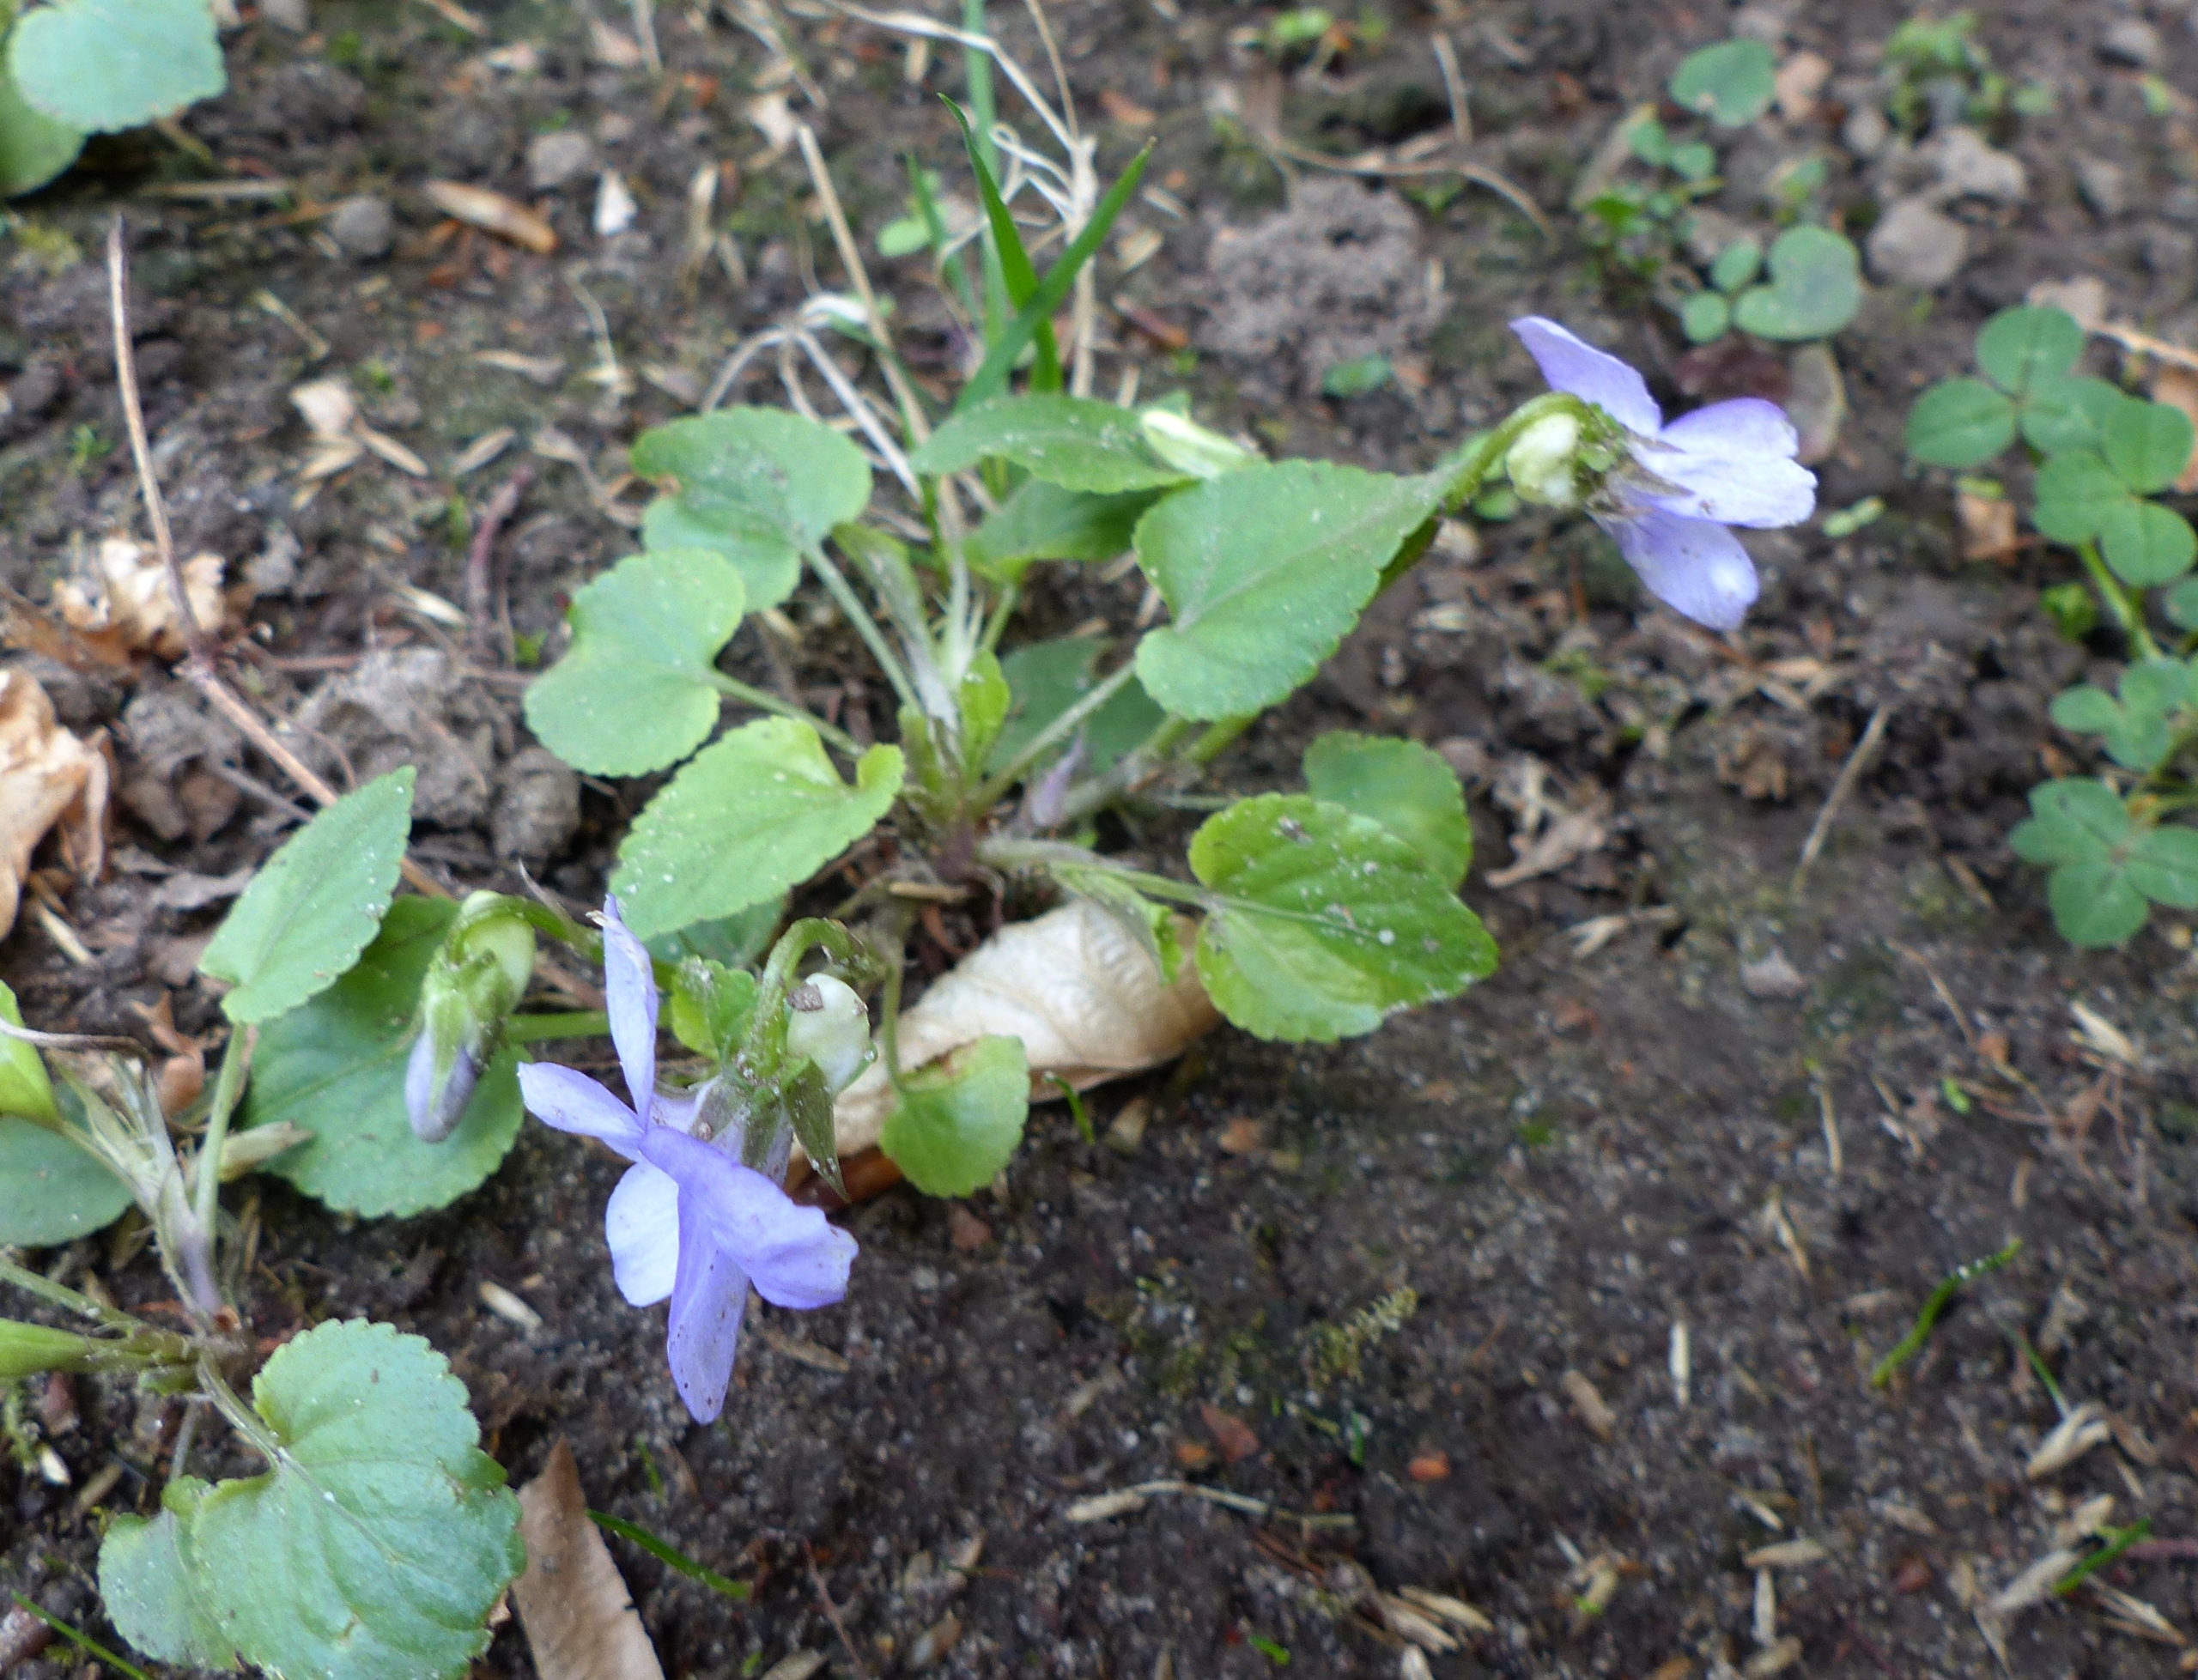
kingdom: Plantae
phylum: Tracheophyta
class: Magnoliopsida
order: Malpighiales
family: Violaceae
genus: Viola
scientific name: Viola riviniana
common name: Krat-viol
